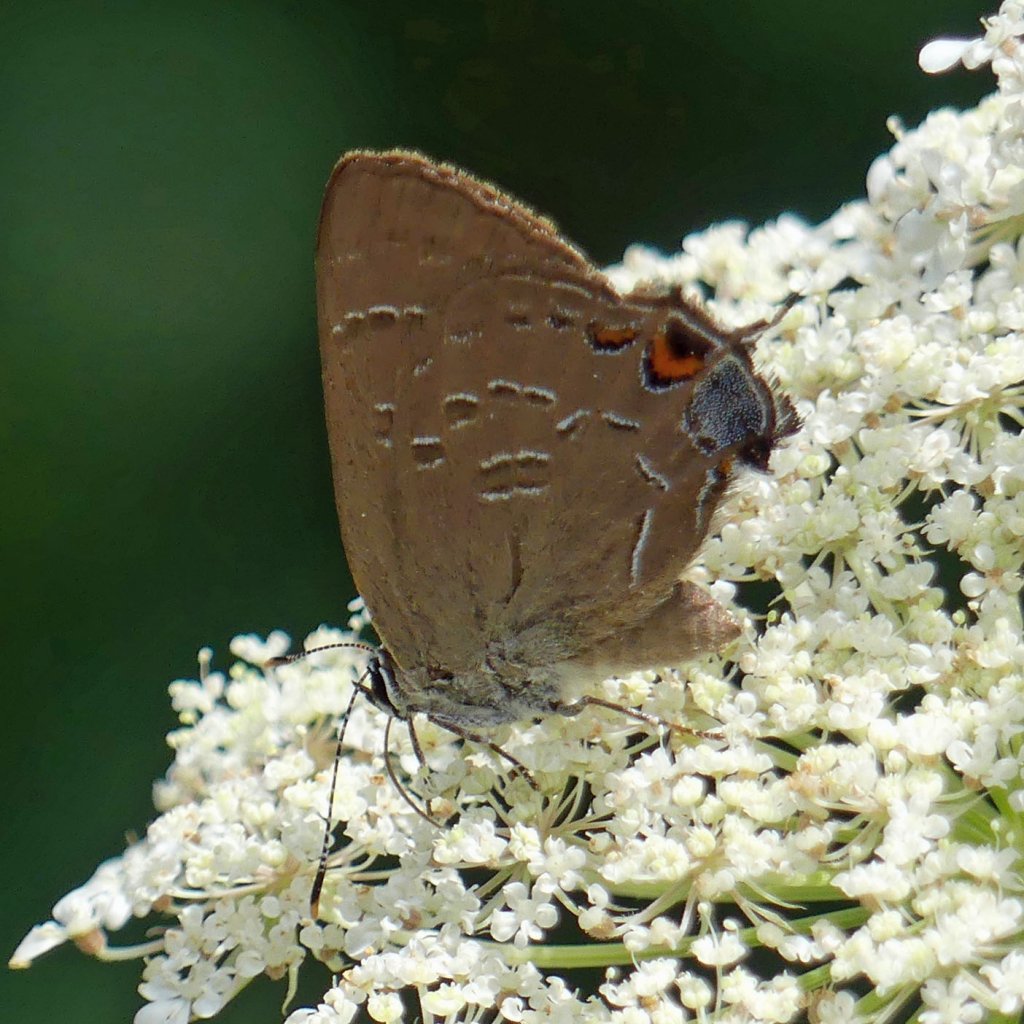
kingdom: Animalia
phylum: Arthropoda
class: Insecta
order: Lepidoptera
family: Lycaenidae
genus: Satyrium
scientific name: Satyrium calanus
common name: Banded Hairstreak
